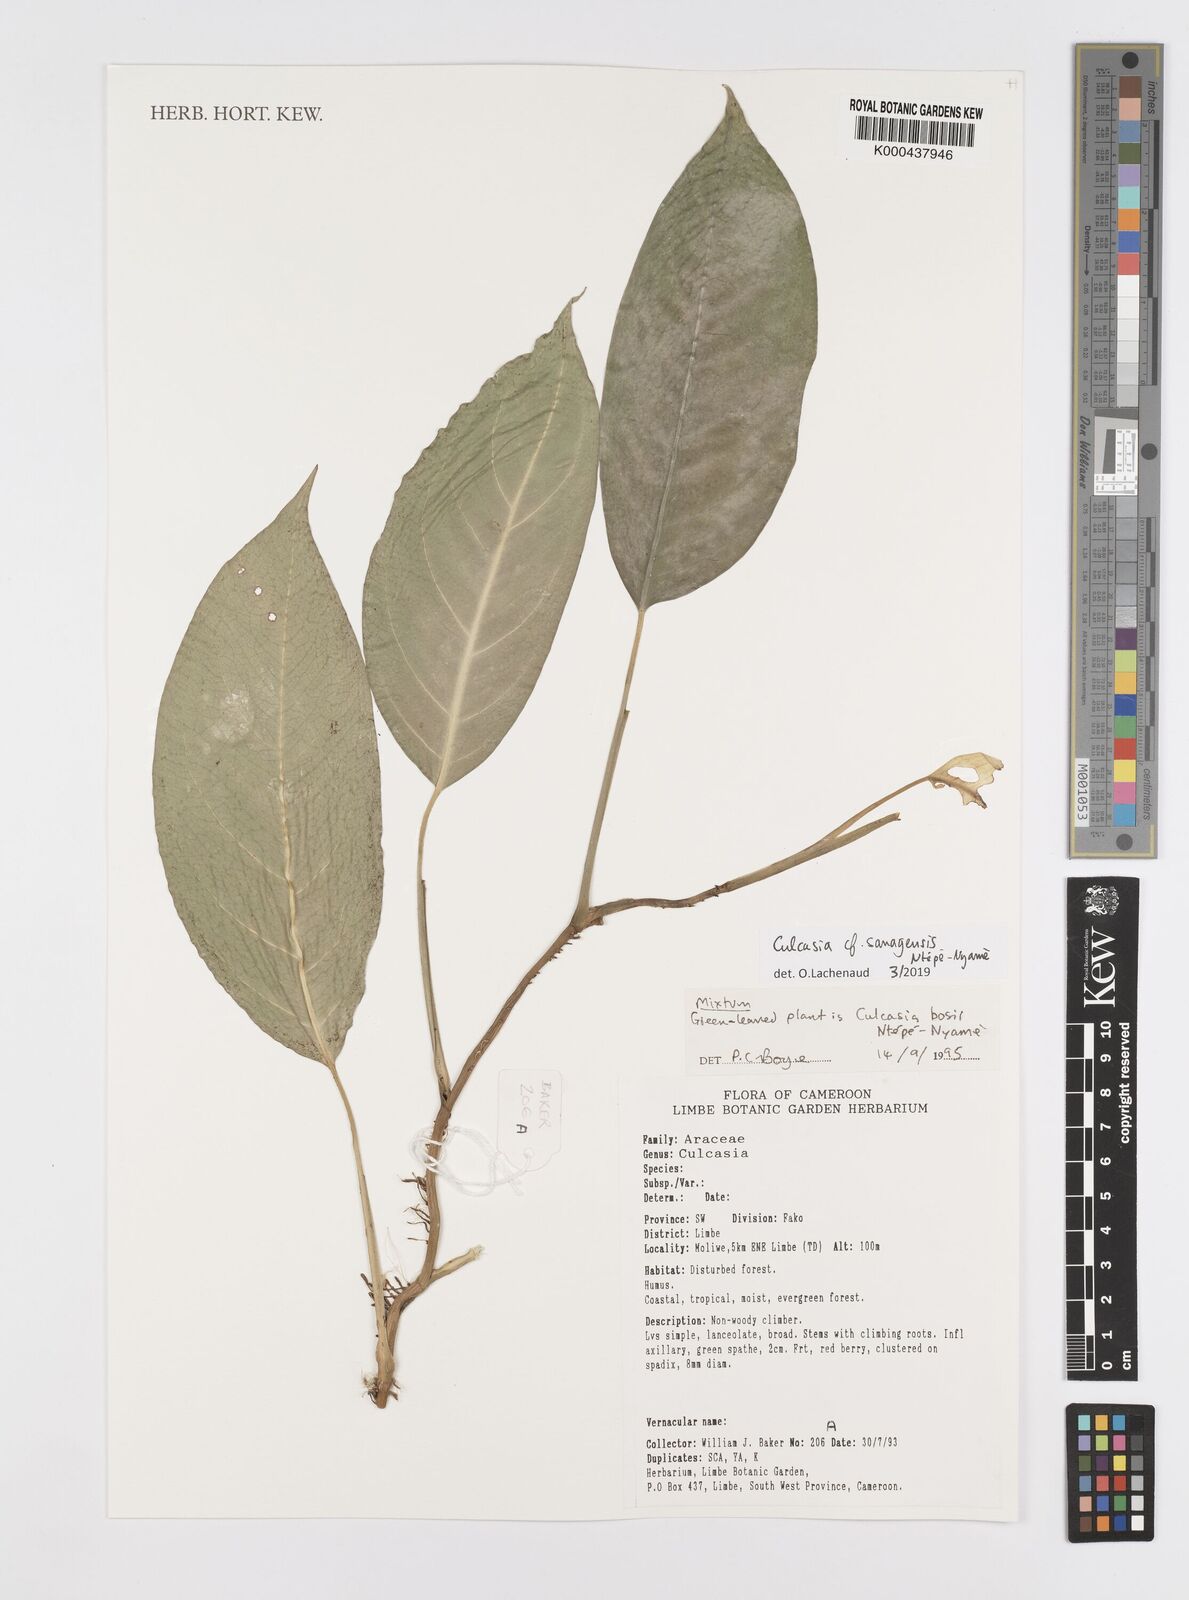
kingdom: Plantae
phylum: Tracheophyta
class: Liliopsida
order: Alismatales
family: Araceae
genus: Culcasia
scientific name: Culcasia
